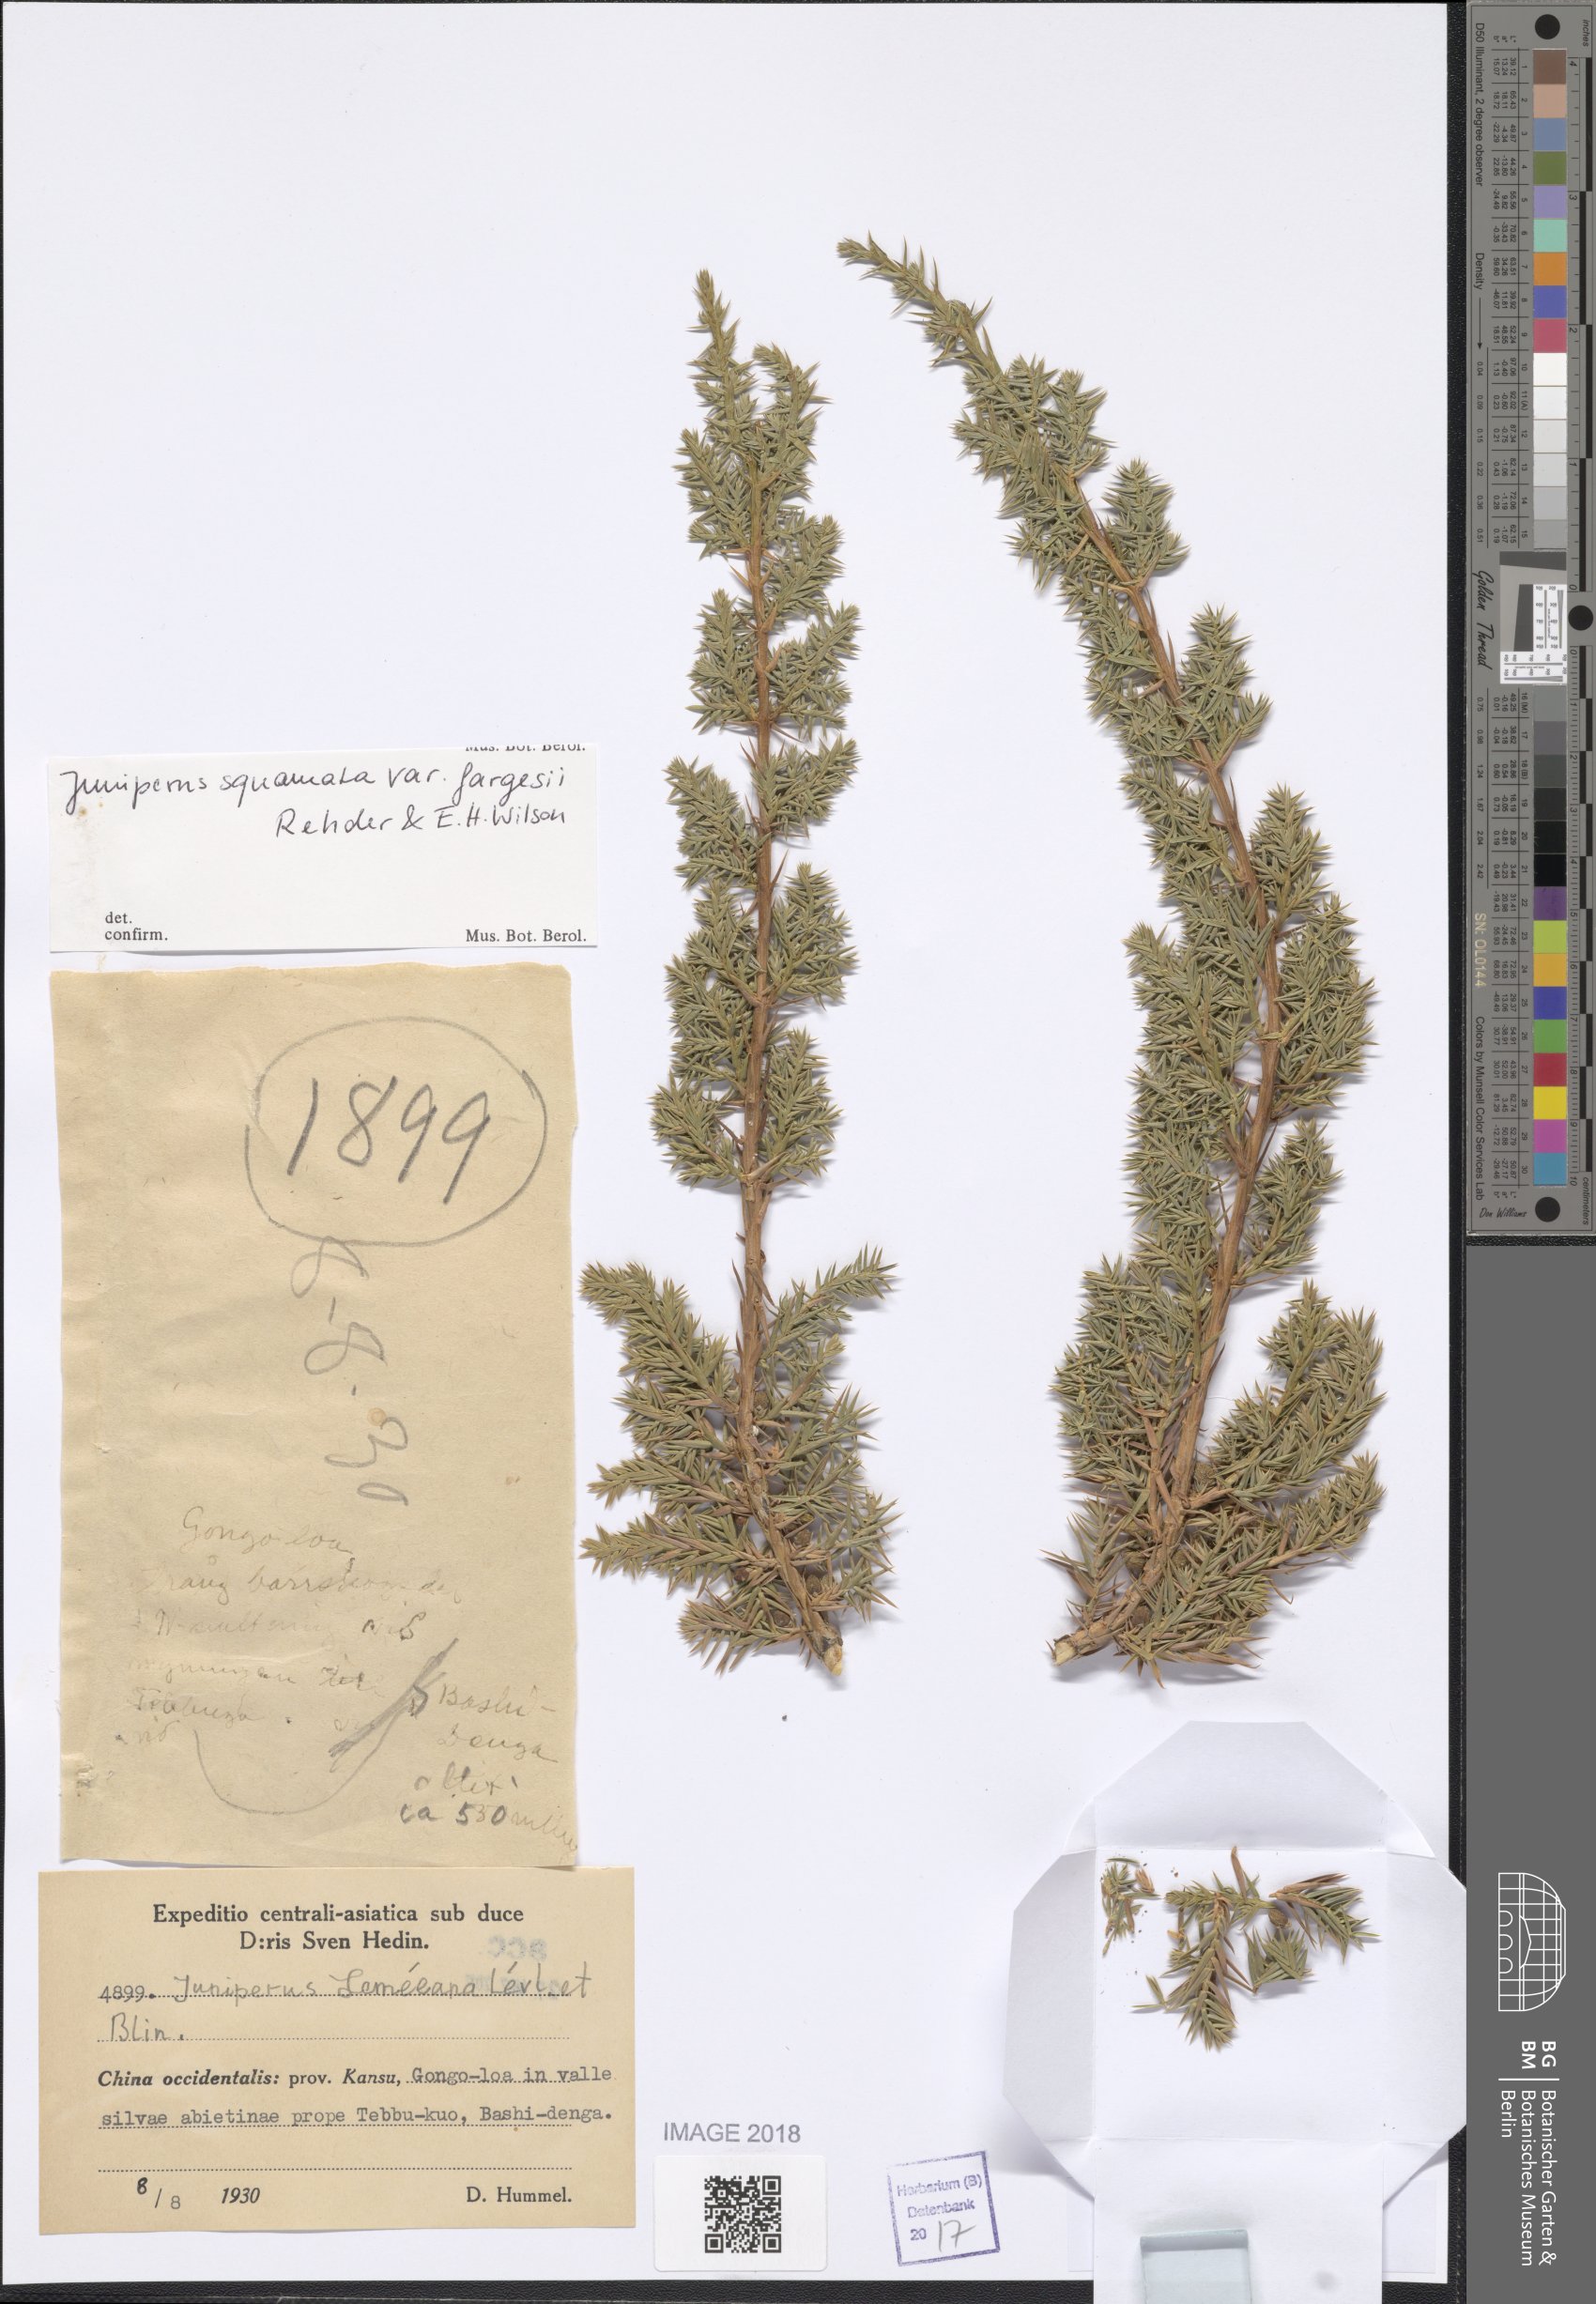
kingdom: Plantae
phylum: Tracheophyta
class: Pinopsida
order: Pinales
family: Cupressaceae
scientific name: Cupressaceae
